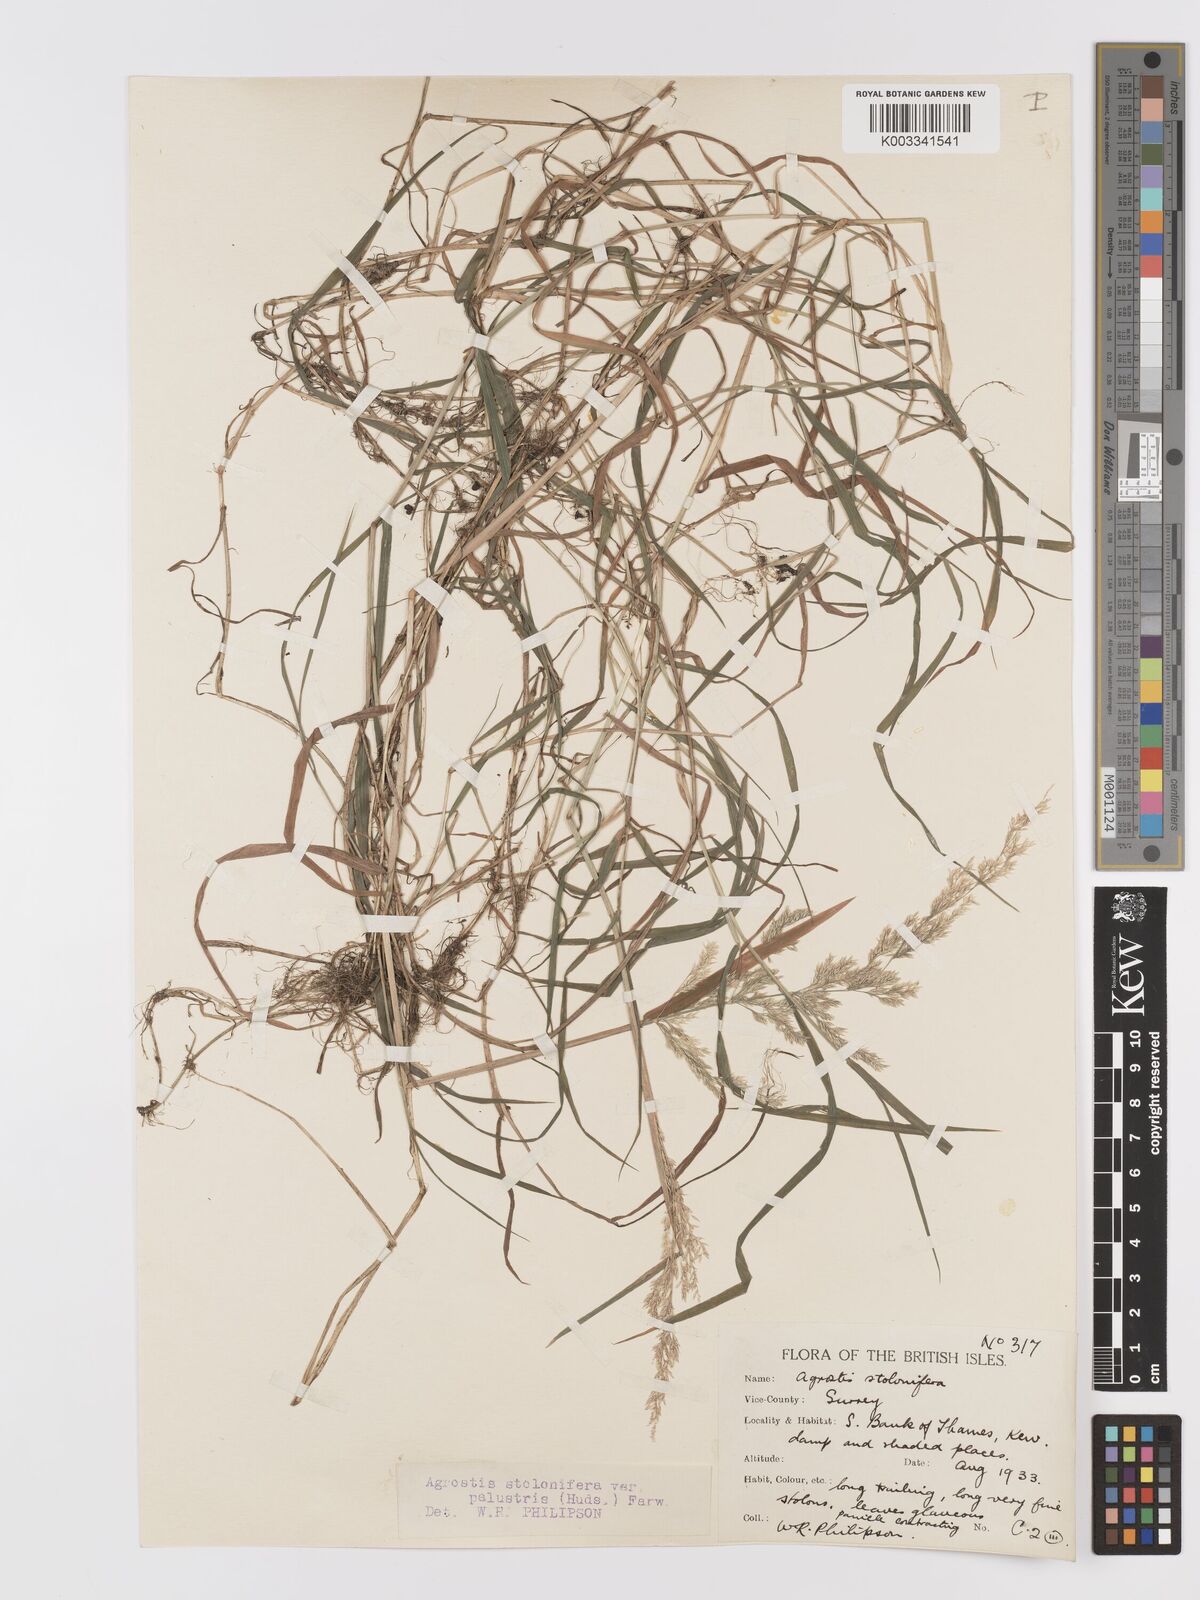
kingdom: Plantae
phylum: Tracheophyta
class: Liliopsida
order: Poales
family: Poaceae
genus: Agrostis
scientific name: Agrostis stolonifera
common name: Creeping bentgrass
